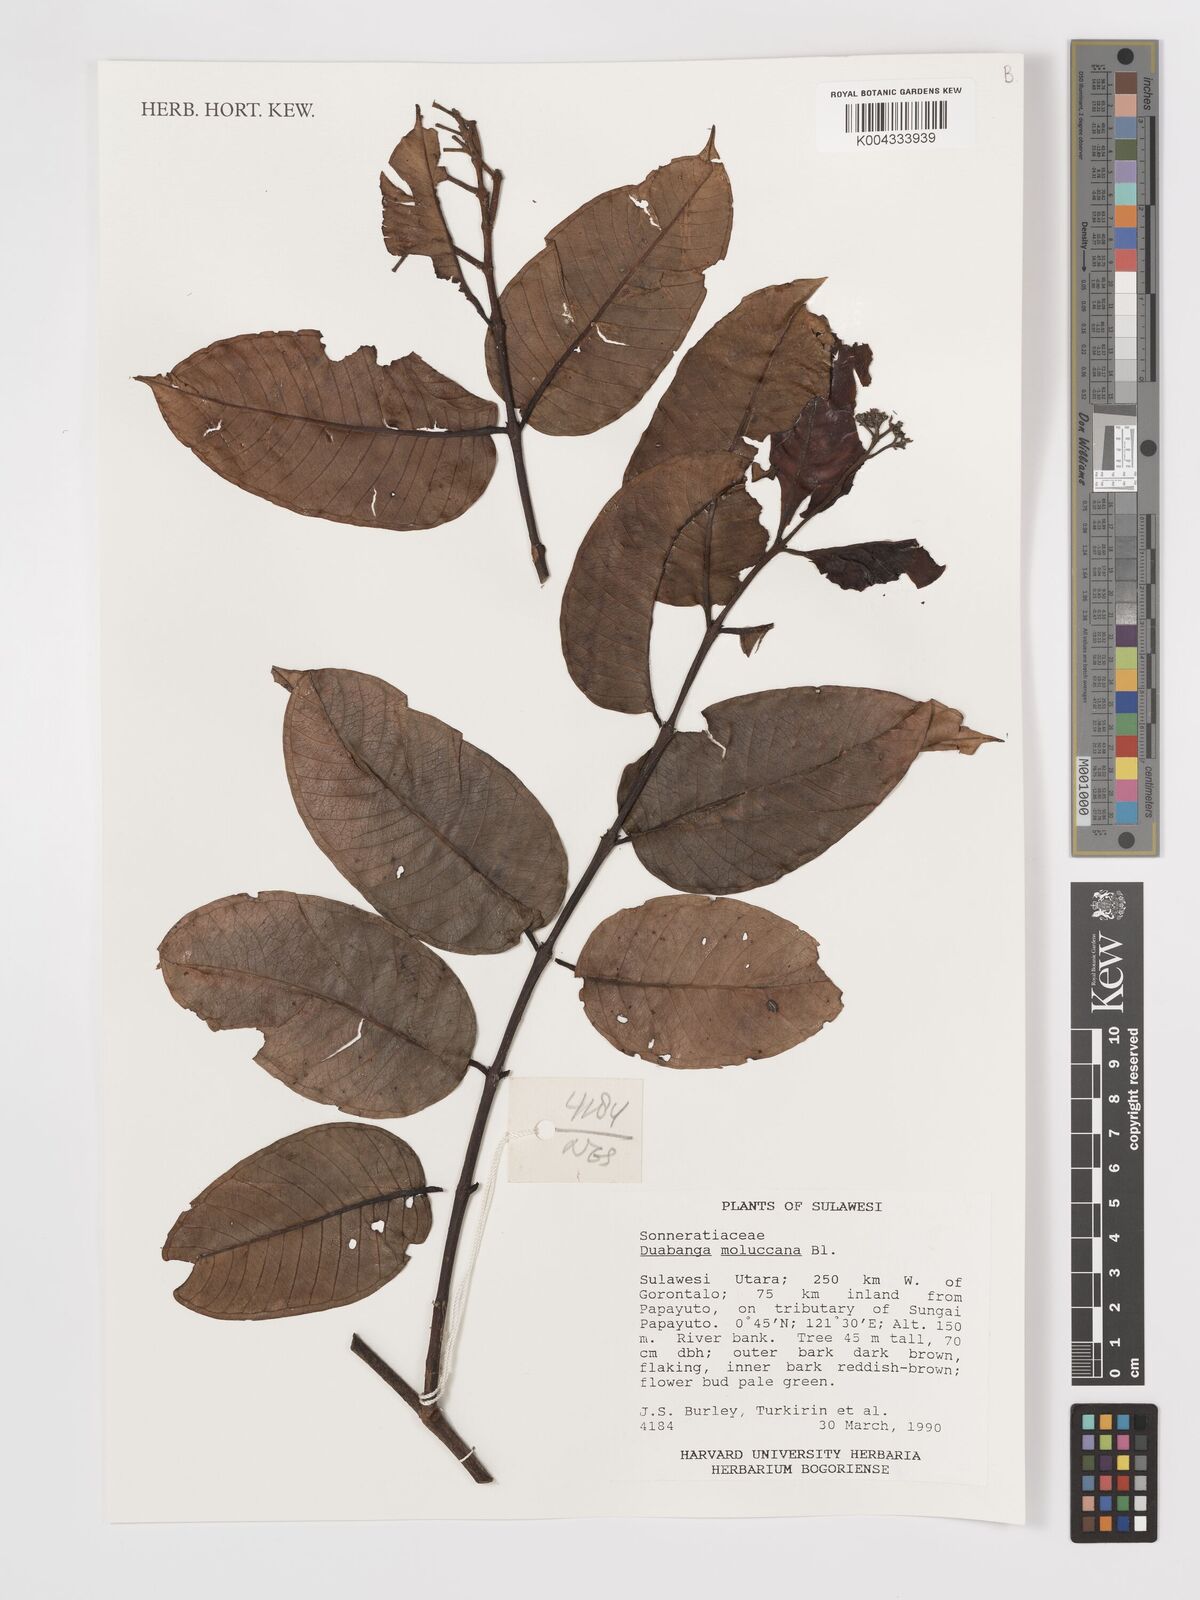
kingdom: Plantae
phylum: Tracheophyta
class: Magnoliopsida
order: Myrtales
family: Lythraceae
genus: Duabanga
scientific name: Duabanga moluccana
